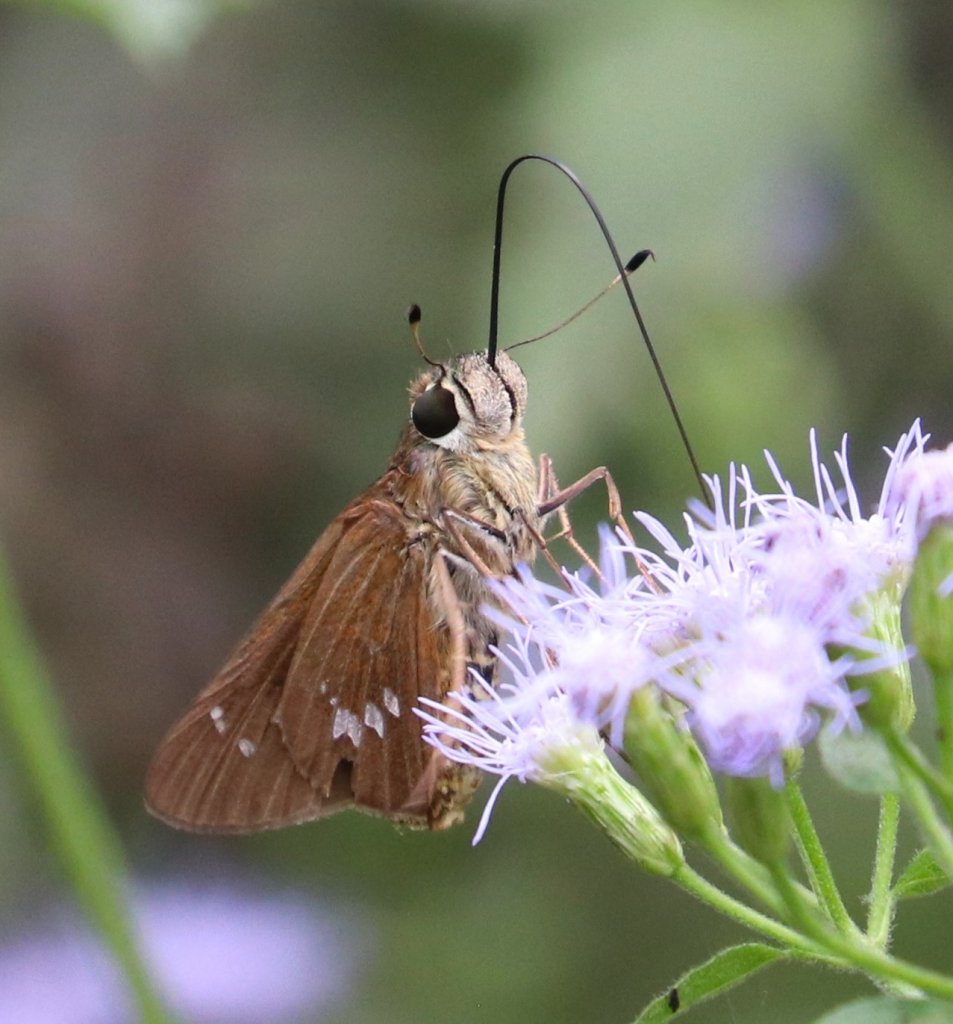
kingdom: Animalia
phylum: Arthropoda
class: Insecta
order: Lepidoptera
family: Hesperiidae
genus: Calpodes
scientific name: Calpodes ethlius
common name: Brazilian Skipper
